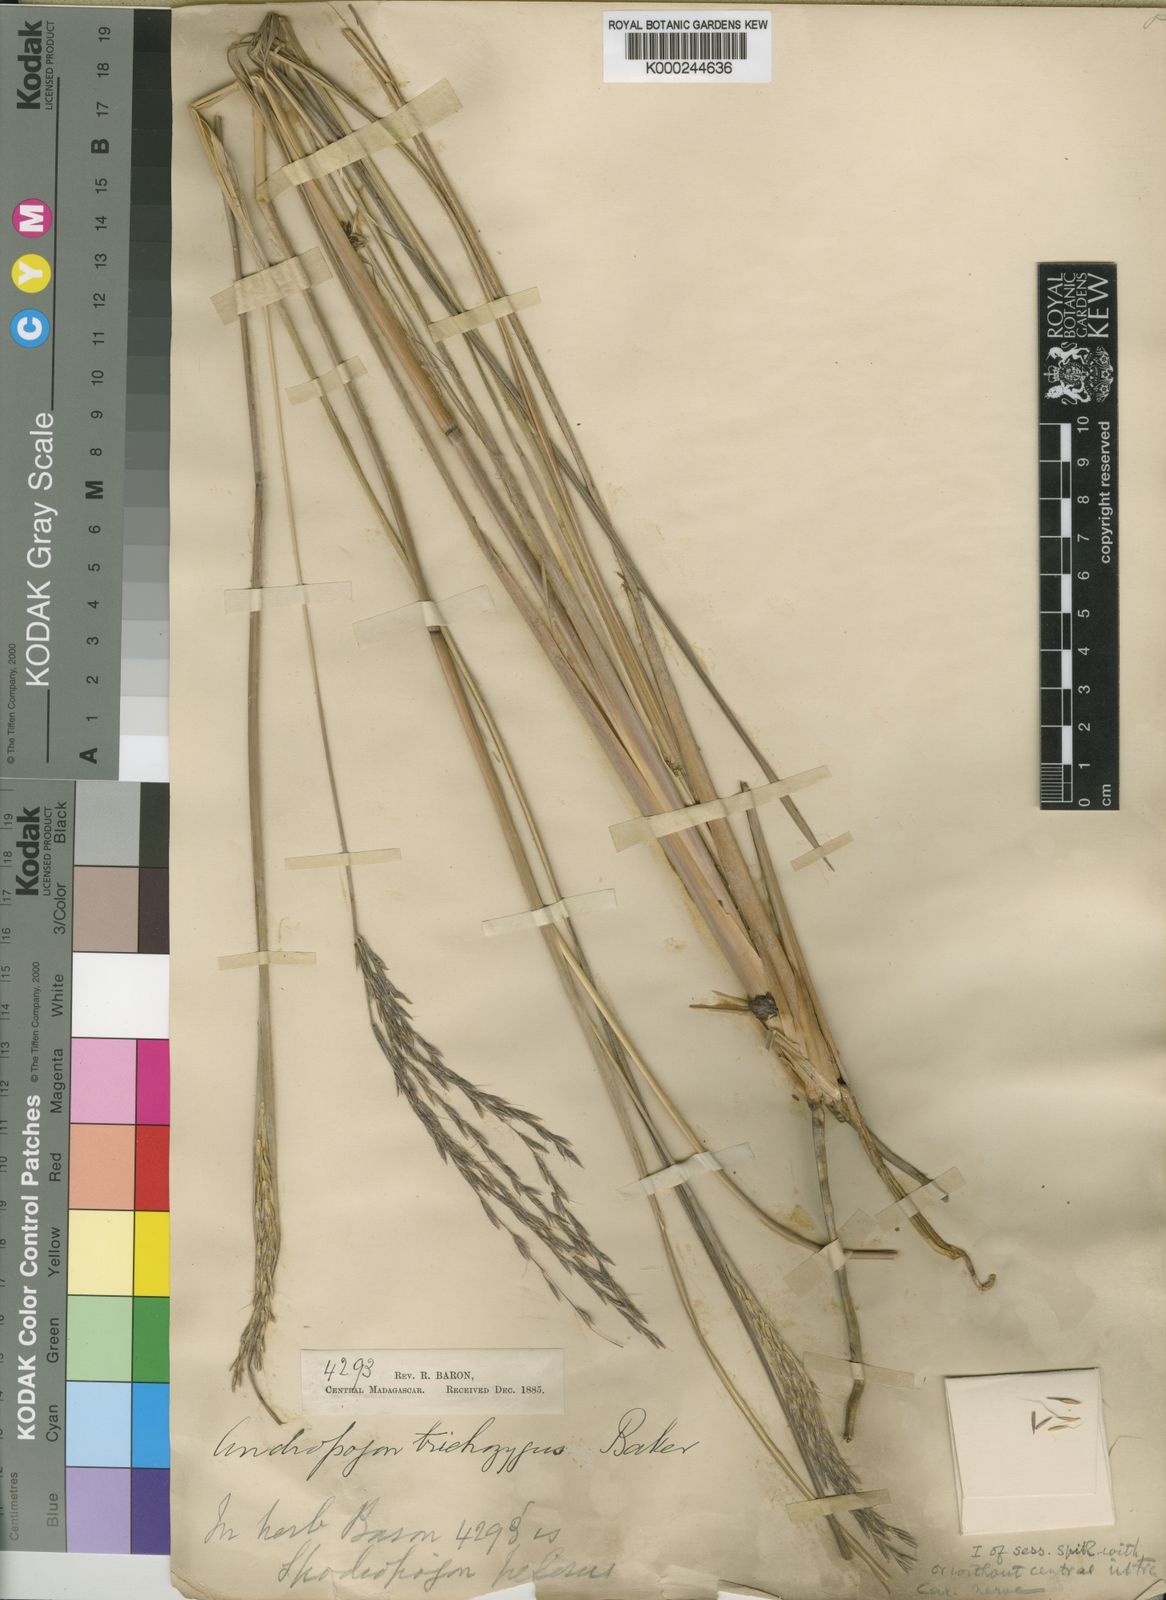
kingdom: Plantae
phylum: Tracheophyta
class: Liliopsida
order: Poales
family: Poaceae
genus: Andropogon
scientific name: Andropogon trichozygus
